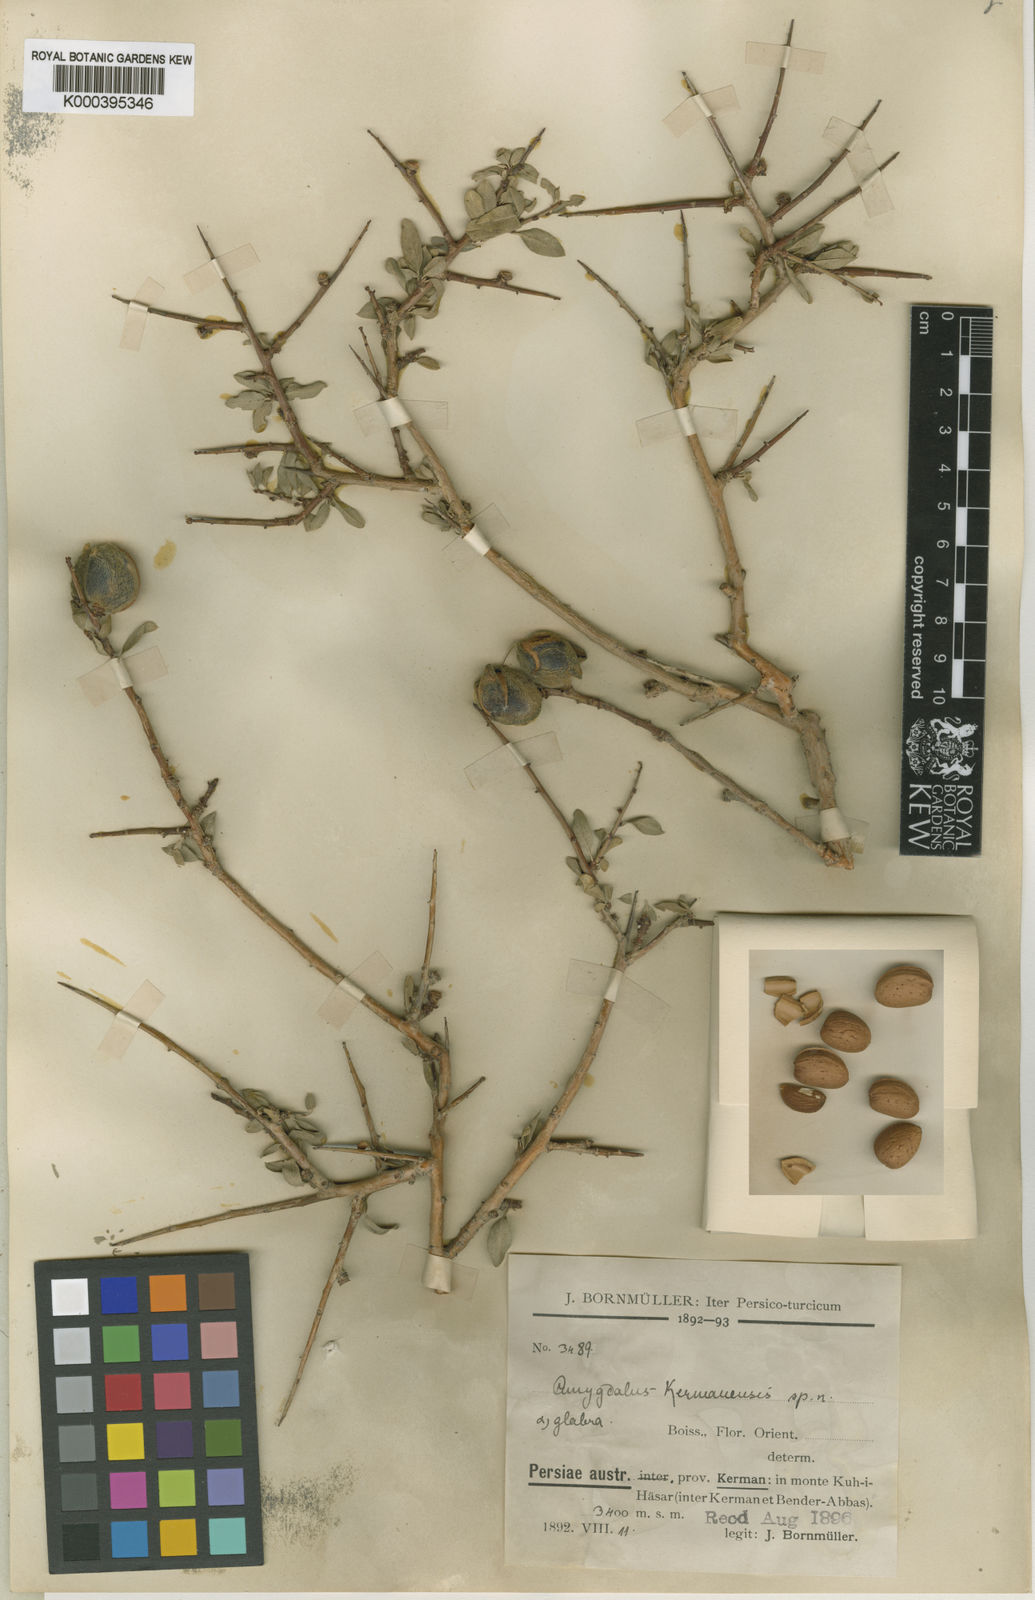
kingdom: Plantae
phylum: Tracheophyta
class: Magnoliopsida
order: Rosales
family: Rosaceae
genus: Prunus
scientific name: Prunus
